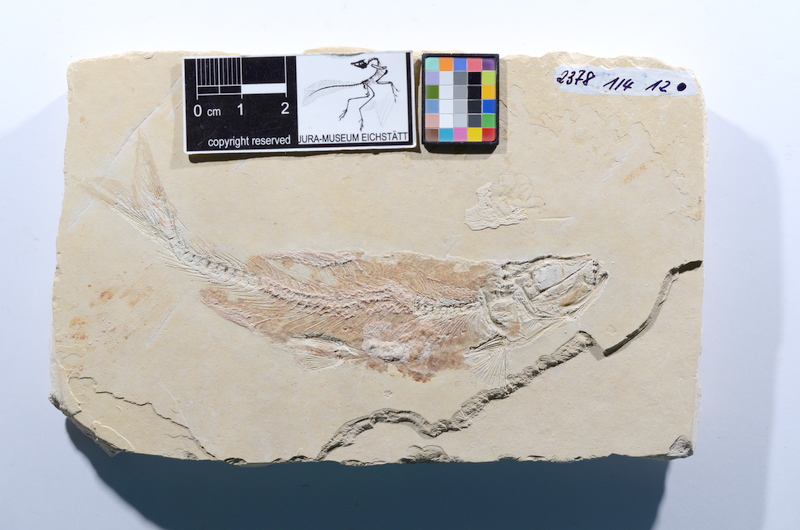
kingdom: Animalia
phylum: Chordata
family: Ascalaboidae
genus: Tharsis
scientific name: Tharsis dubius
